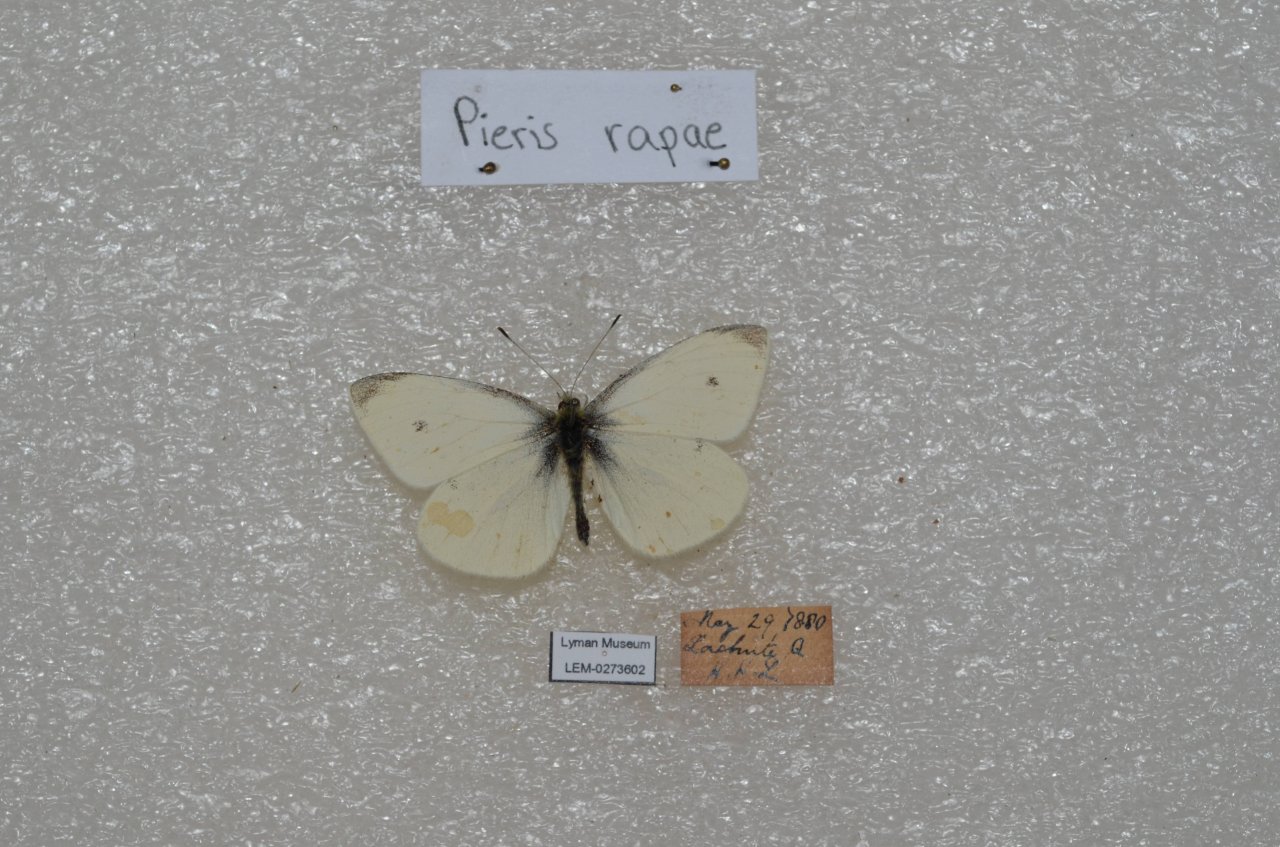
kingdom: Animalia
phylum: Arthropoda
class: Insecta
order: Lepidoptera
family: Pieridae
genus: Pieris
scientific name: Pieris rapae
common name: Cabbage White
